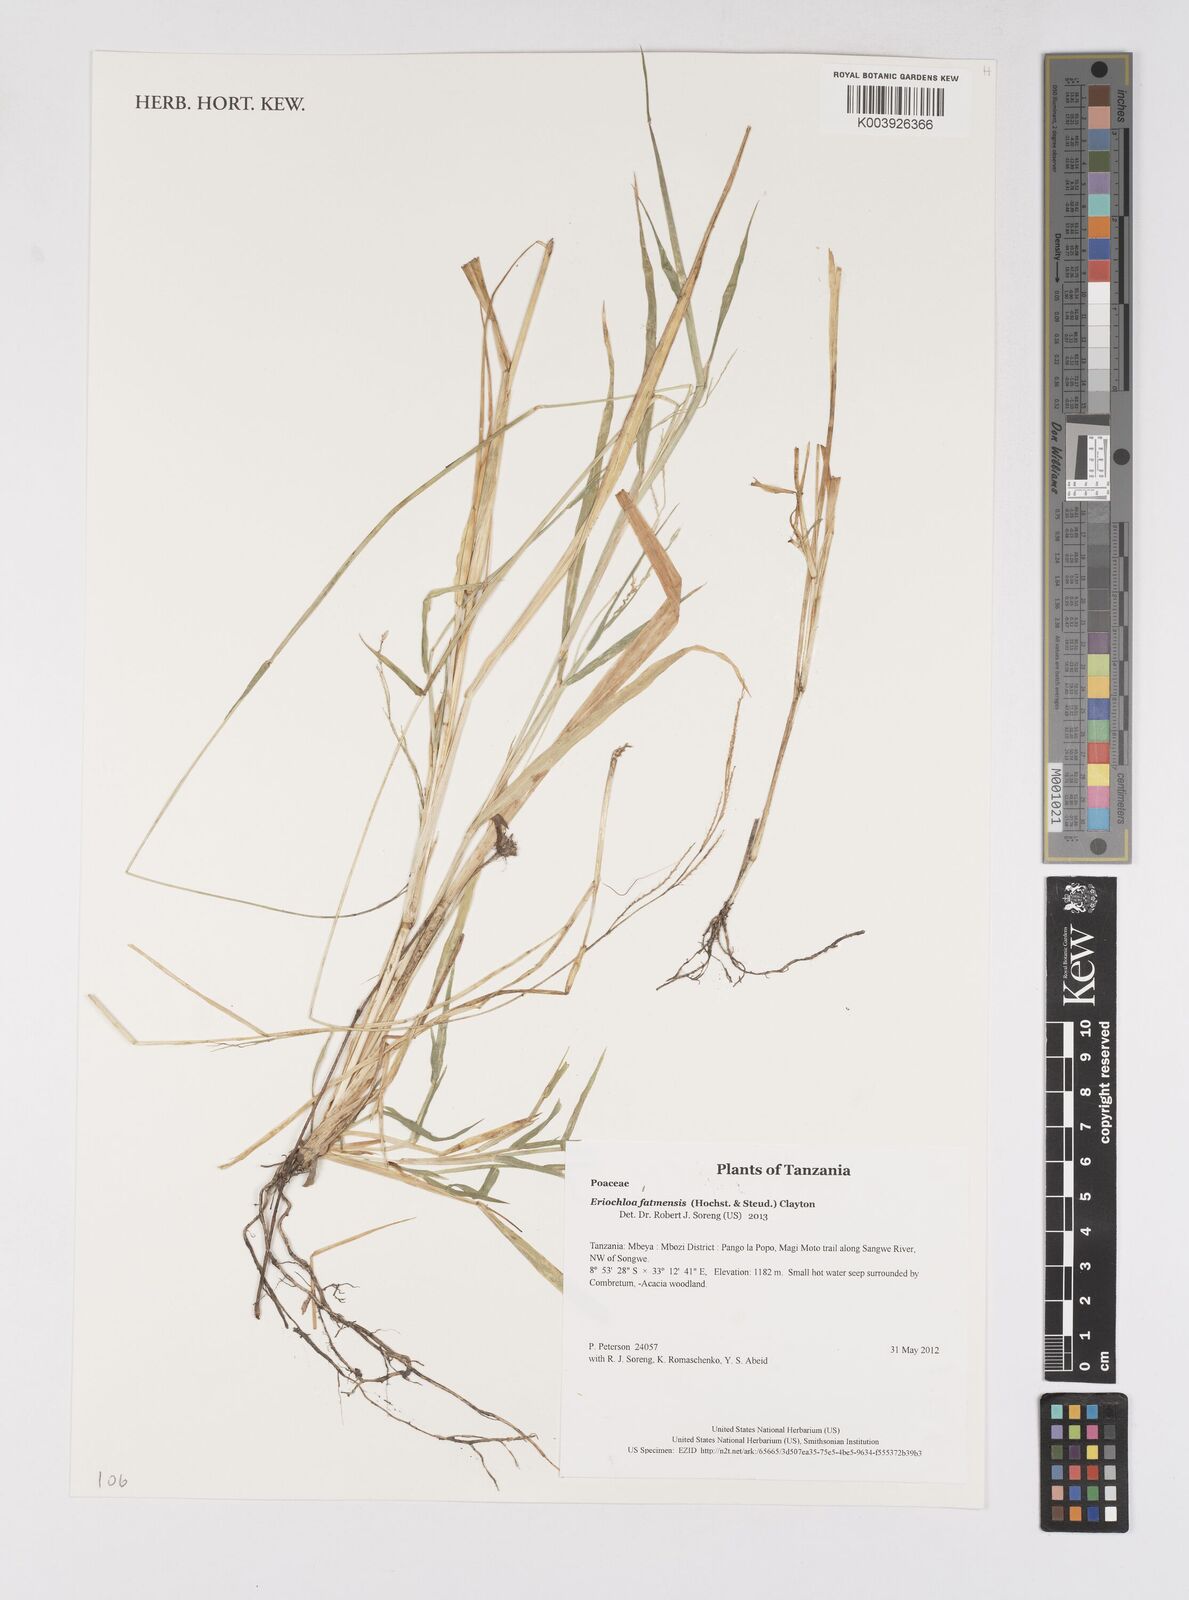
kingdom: Plantae
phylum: Tracheophyta
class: Liliopsida
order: Poales
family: Poaceae
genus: Eriochloa
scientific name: Eriochloa barbatus
